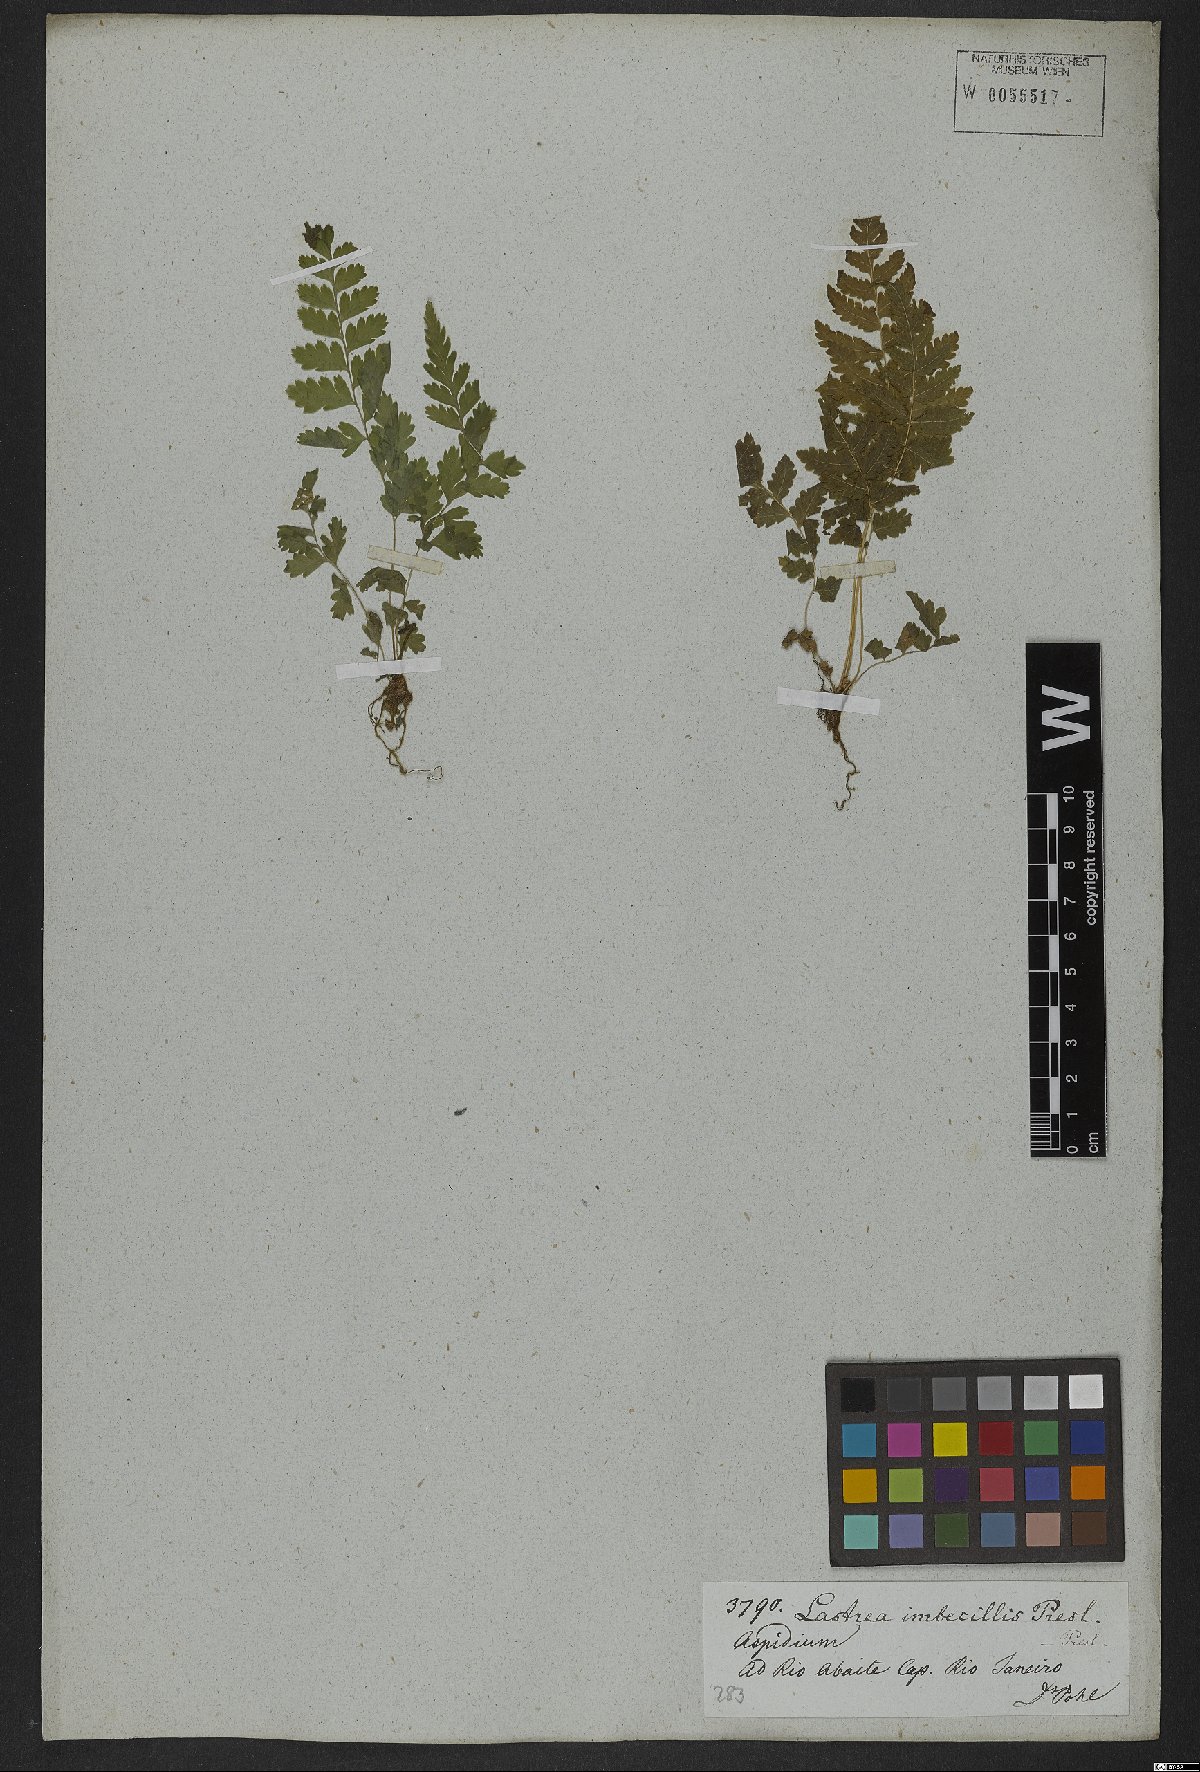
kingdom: Plantae
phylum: Tracheophyta
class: Polypodiopsida
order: Polypodiales
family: Dryopteridaceae
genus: Dryopteris
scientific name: Dryopteris patula
